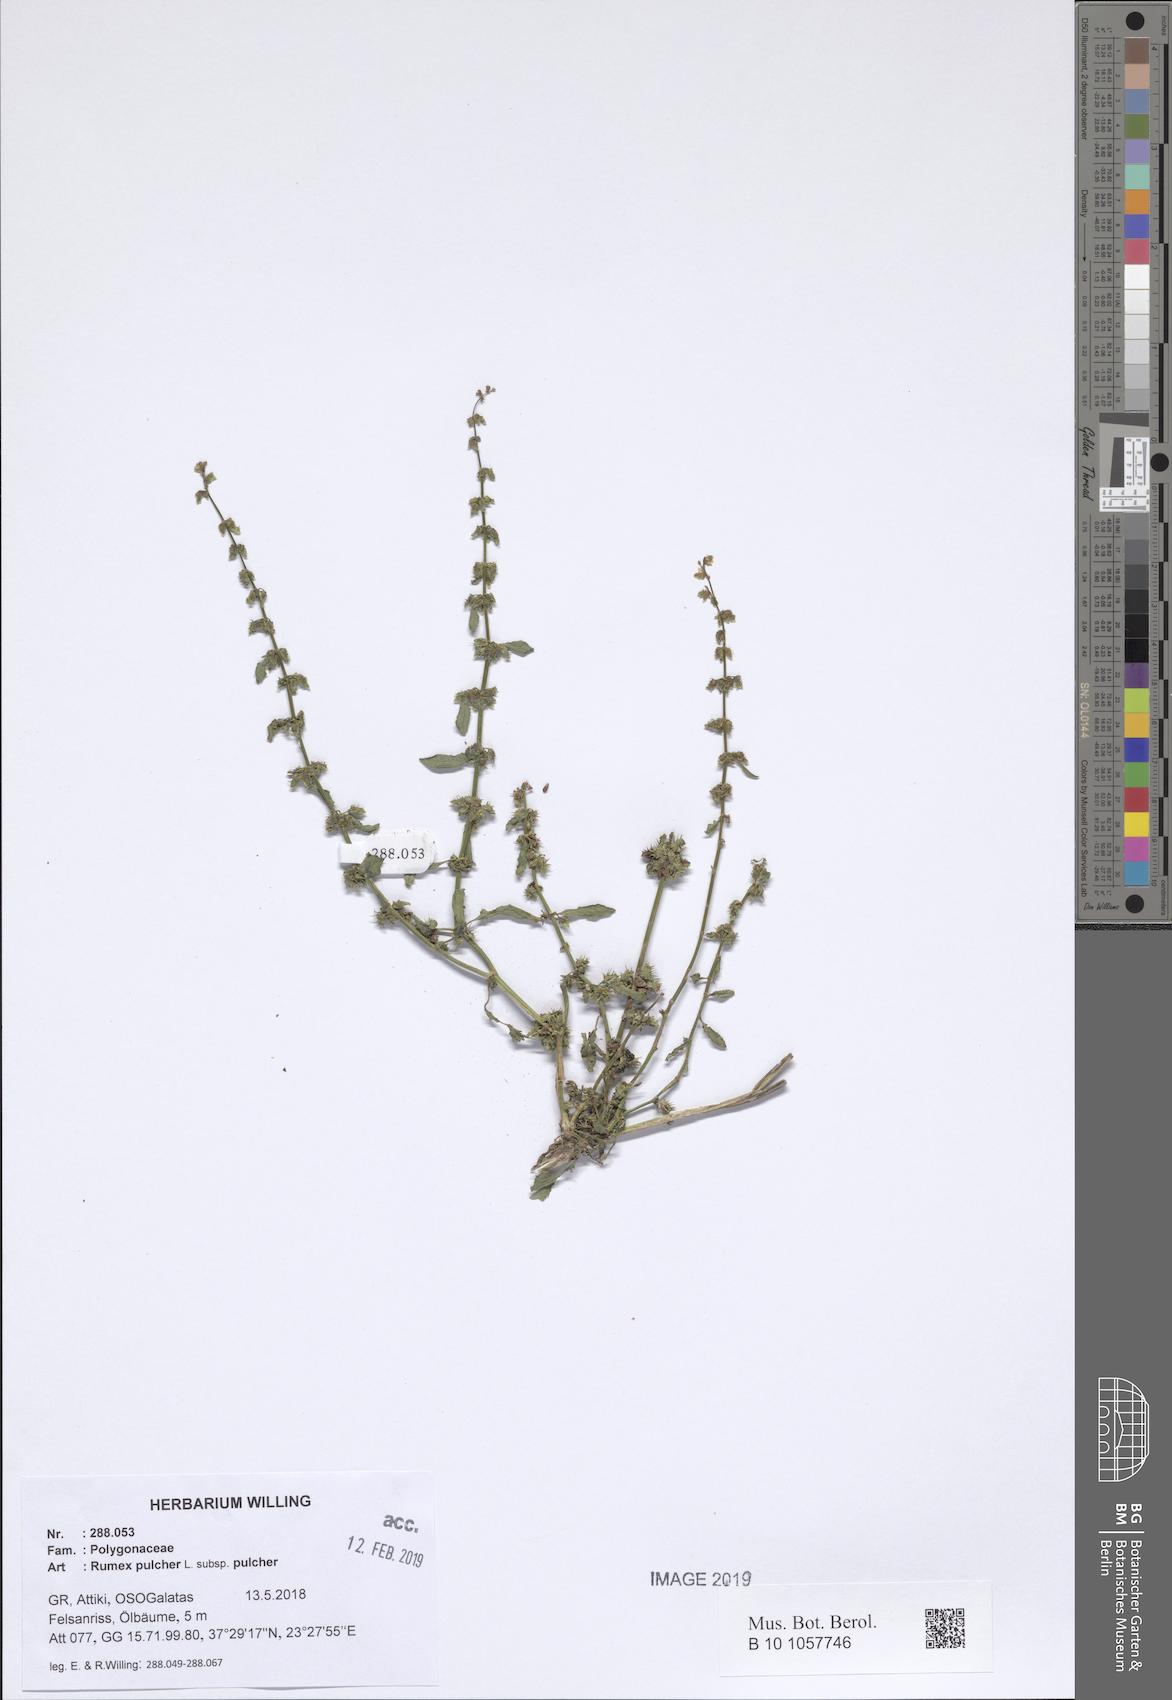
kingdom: Plantae
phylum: Tracheophyta
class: Magnoliopsida
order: Caryophyllales
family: Polygonaceae
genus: Rumex
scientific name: Rumex pulcher
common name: Fiddle dock
